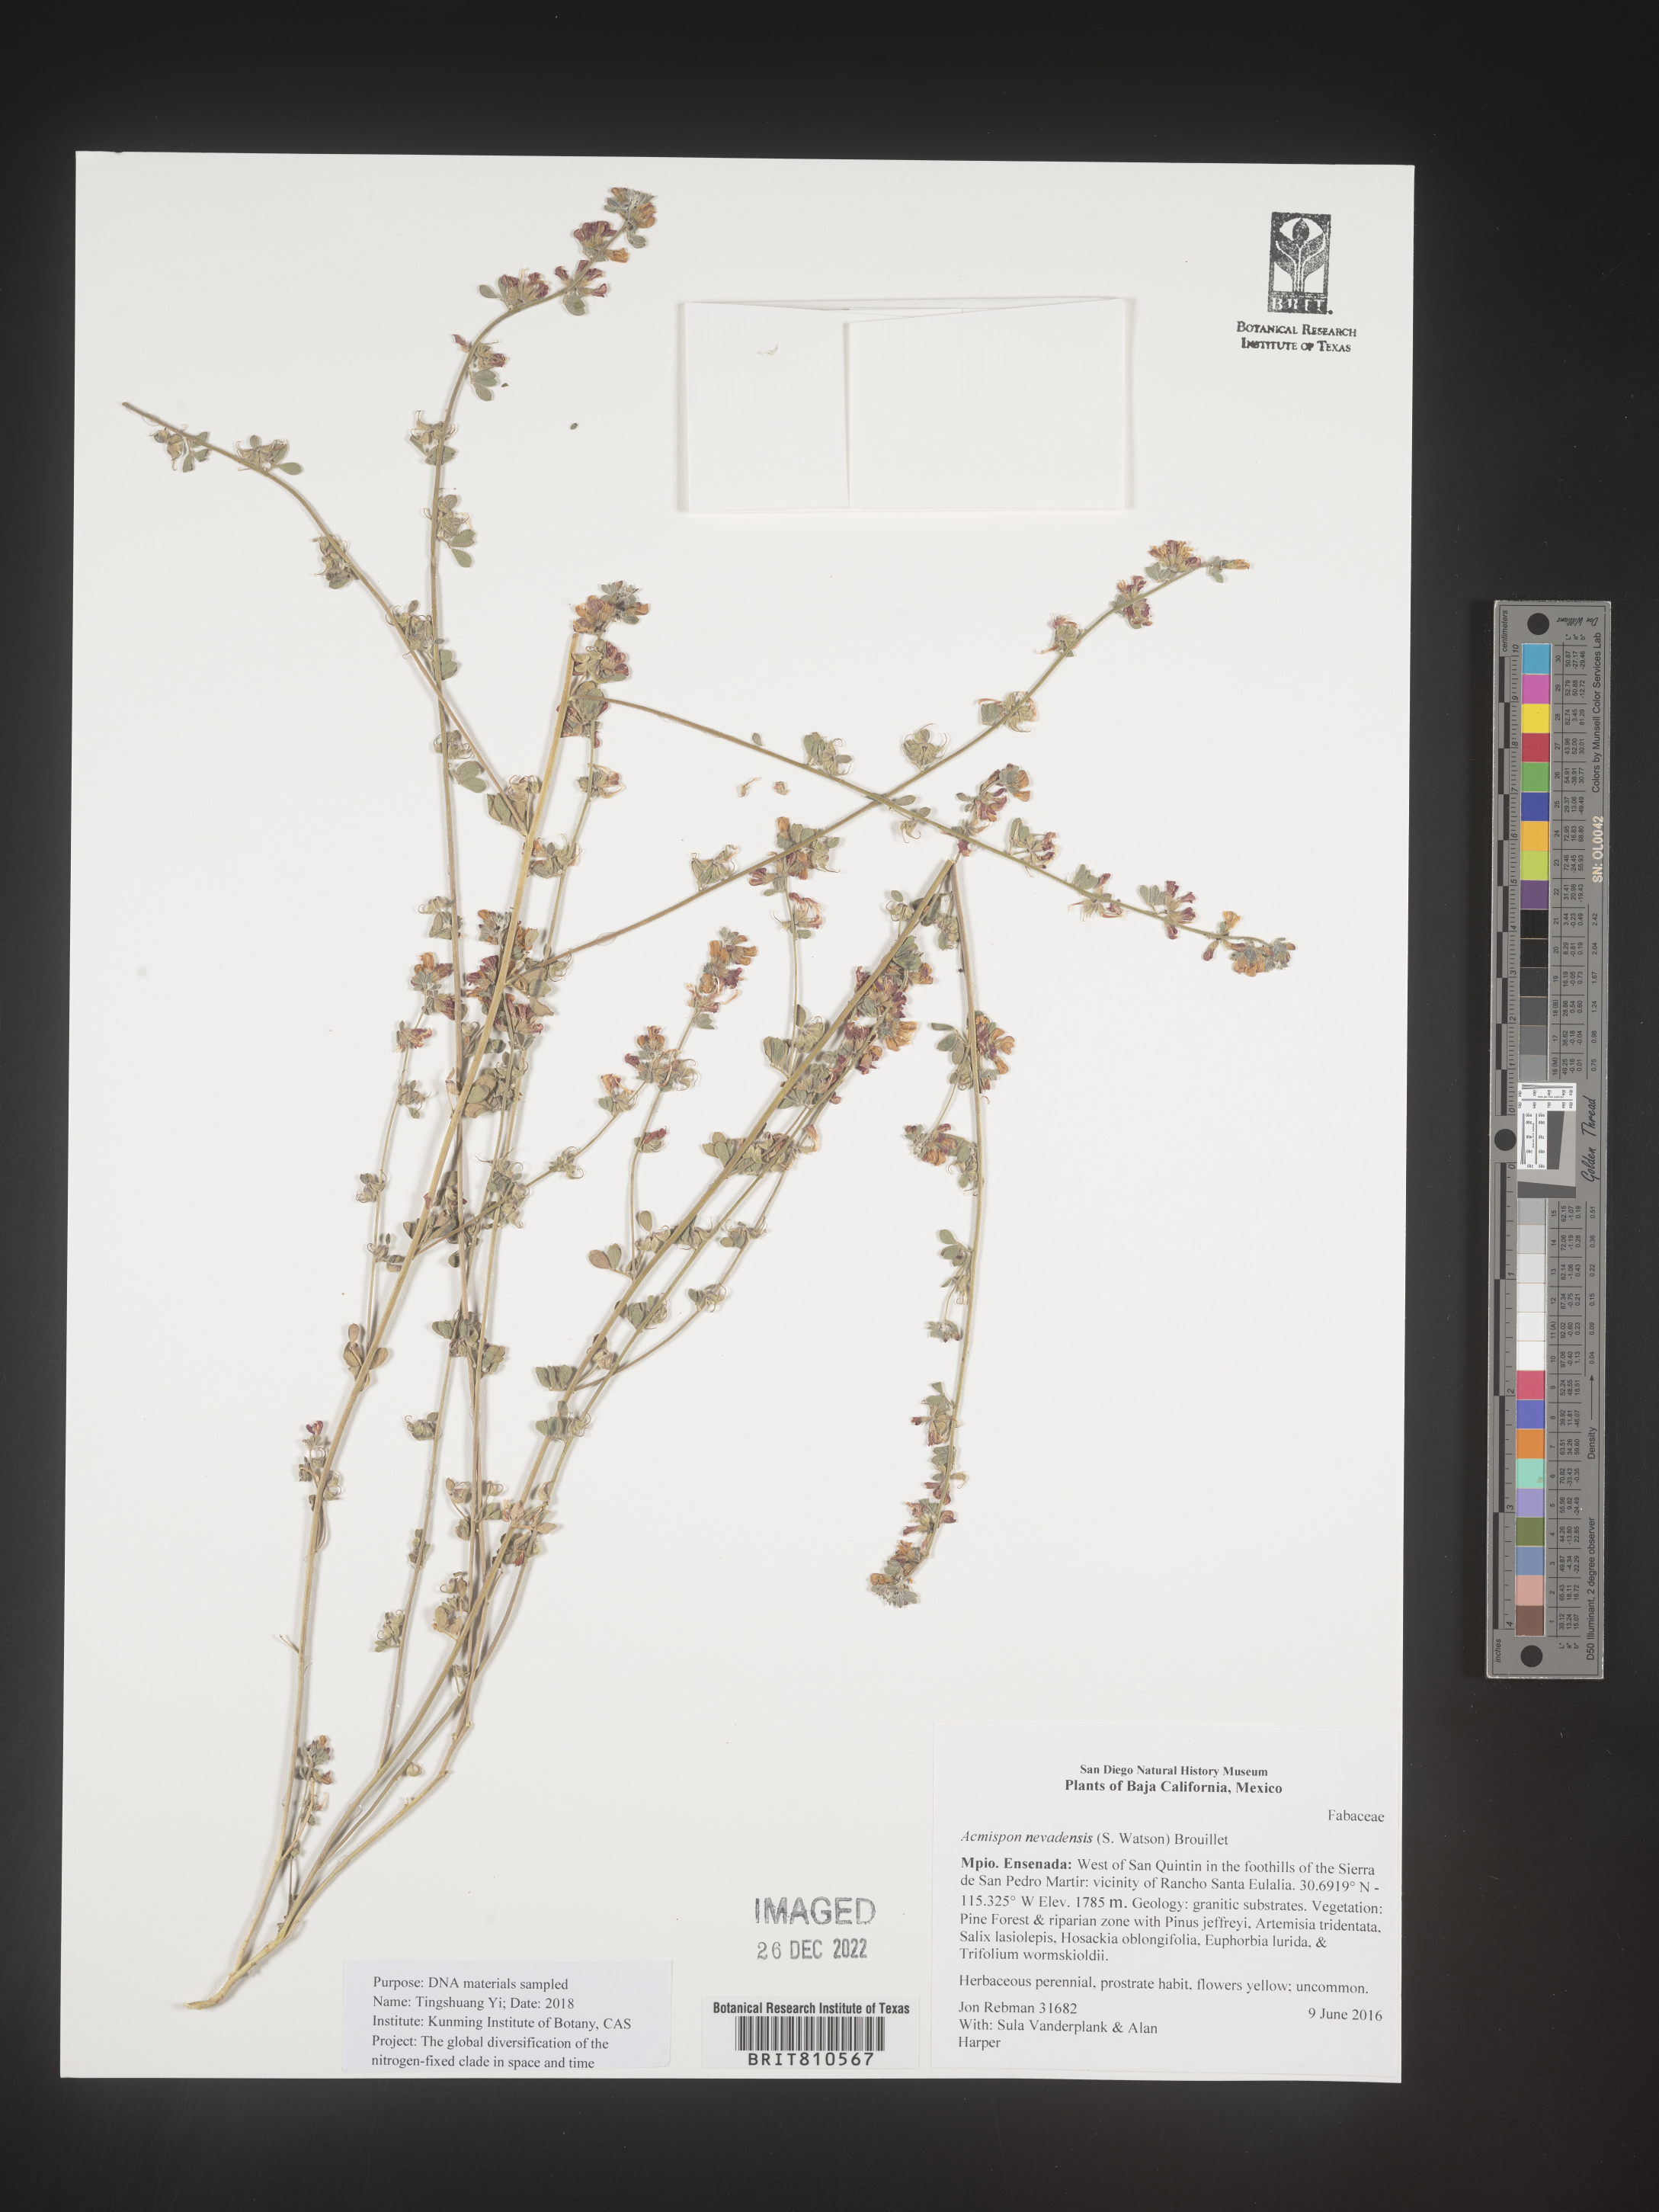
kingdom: Plantae
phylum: Tracheophyta
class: Magnoliopsida
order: Fabales
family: Fabaceae
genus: Acmispon
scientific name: Acmispon
